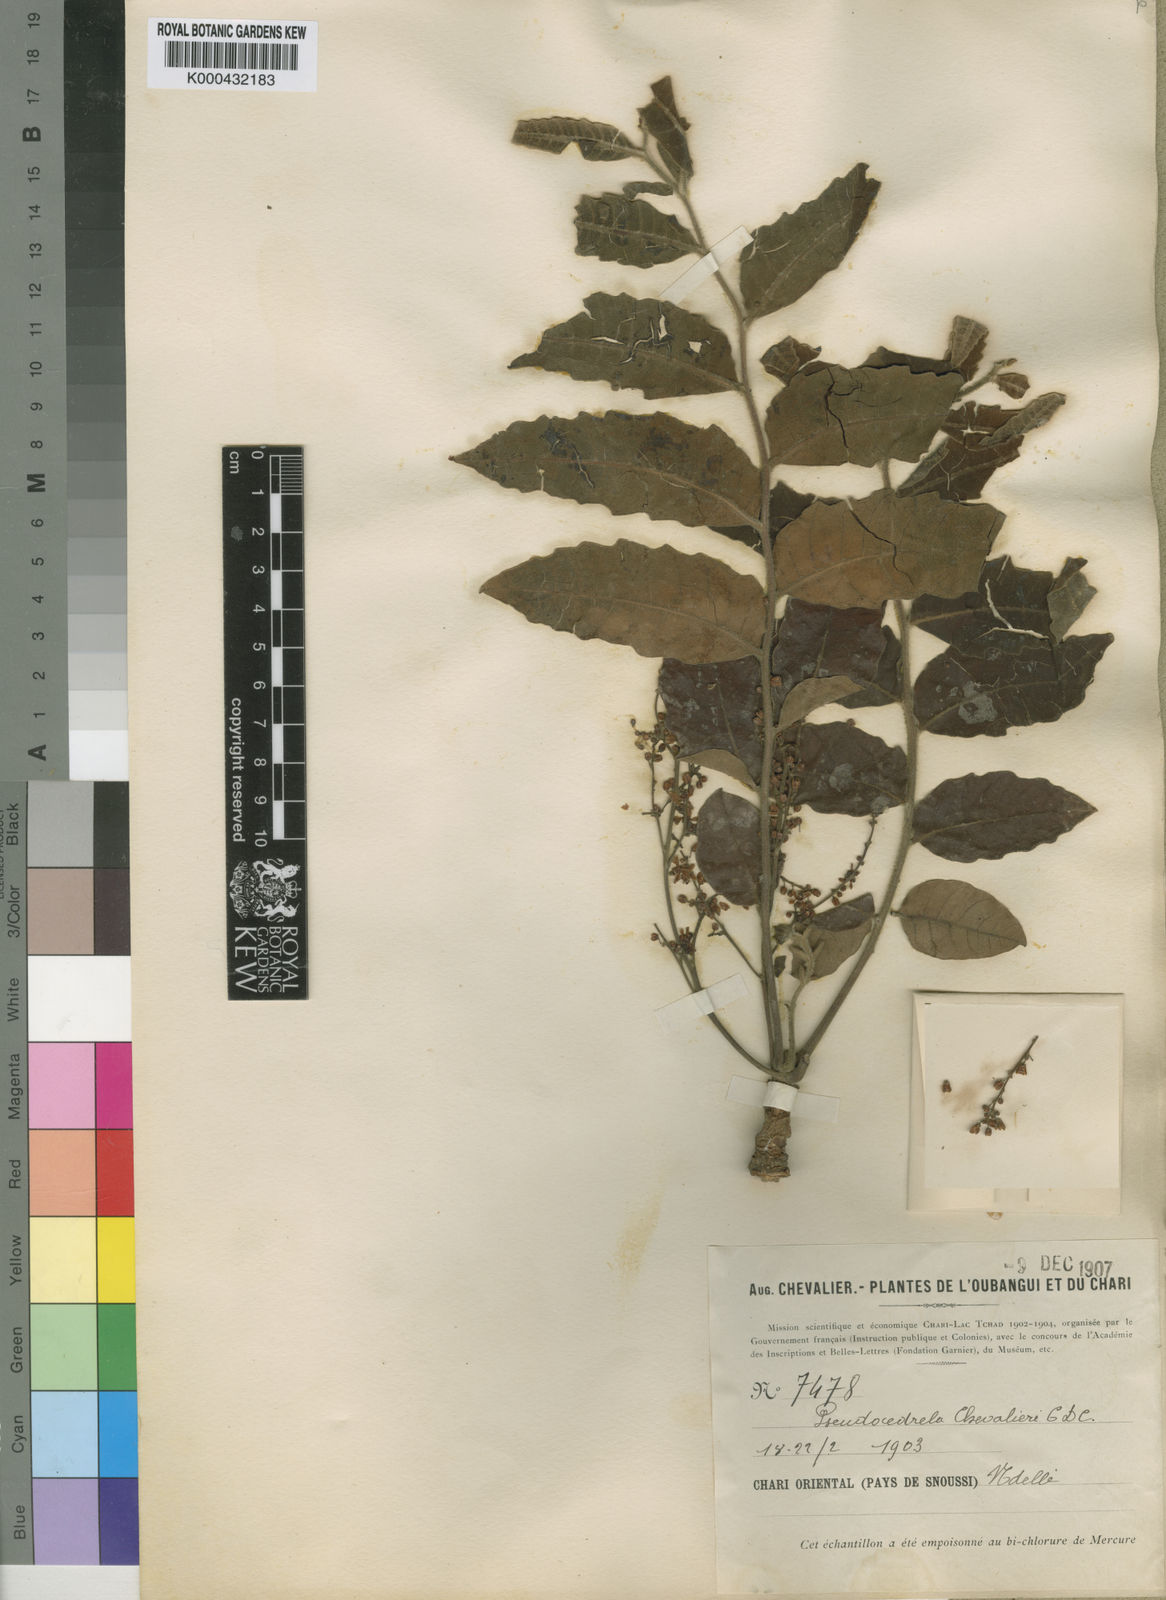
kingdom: Plantae
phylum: Tracheophyta
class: Magnoliopsida
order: Sapindales
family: Meliaceae
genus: Pseudocedrela
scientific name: Pseudocedrela kotschyi
